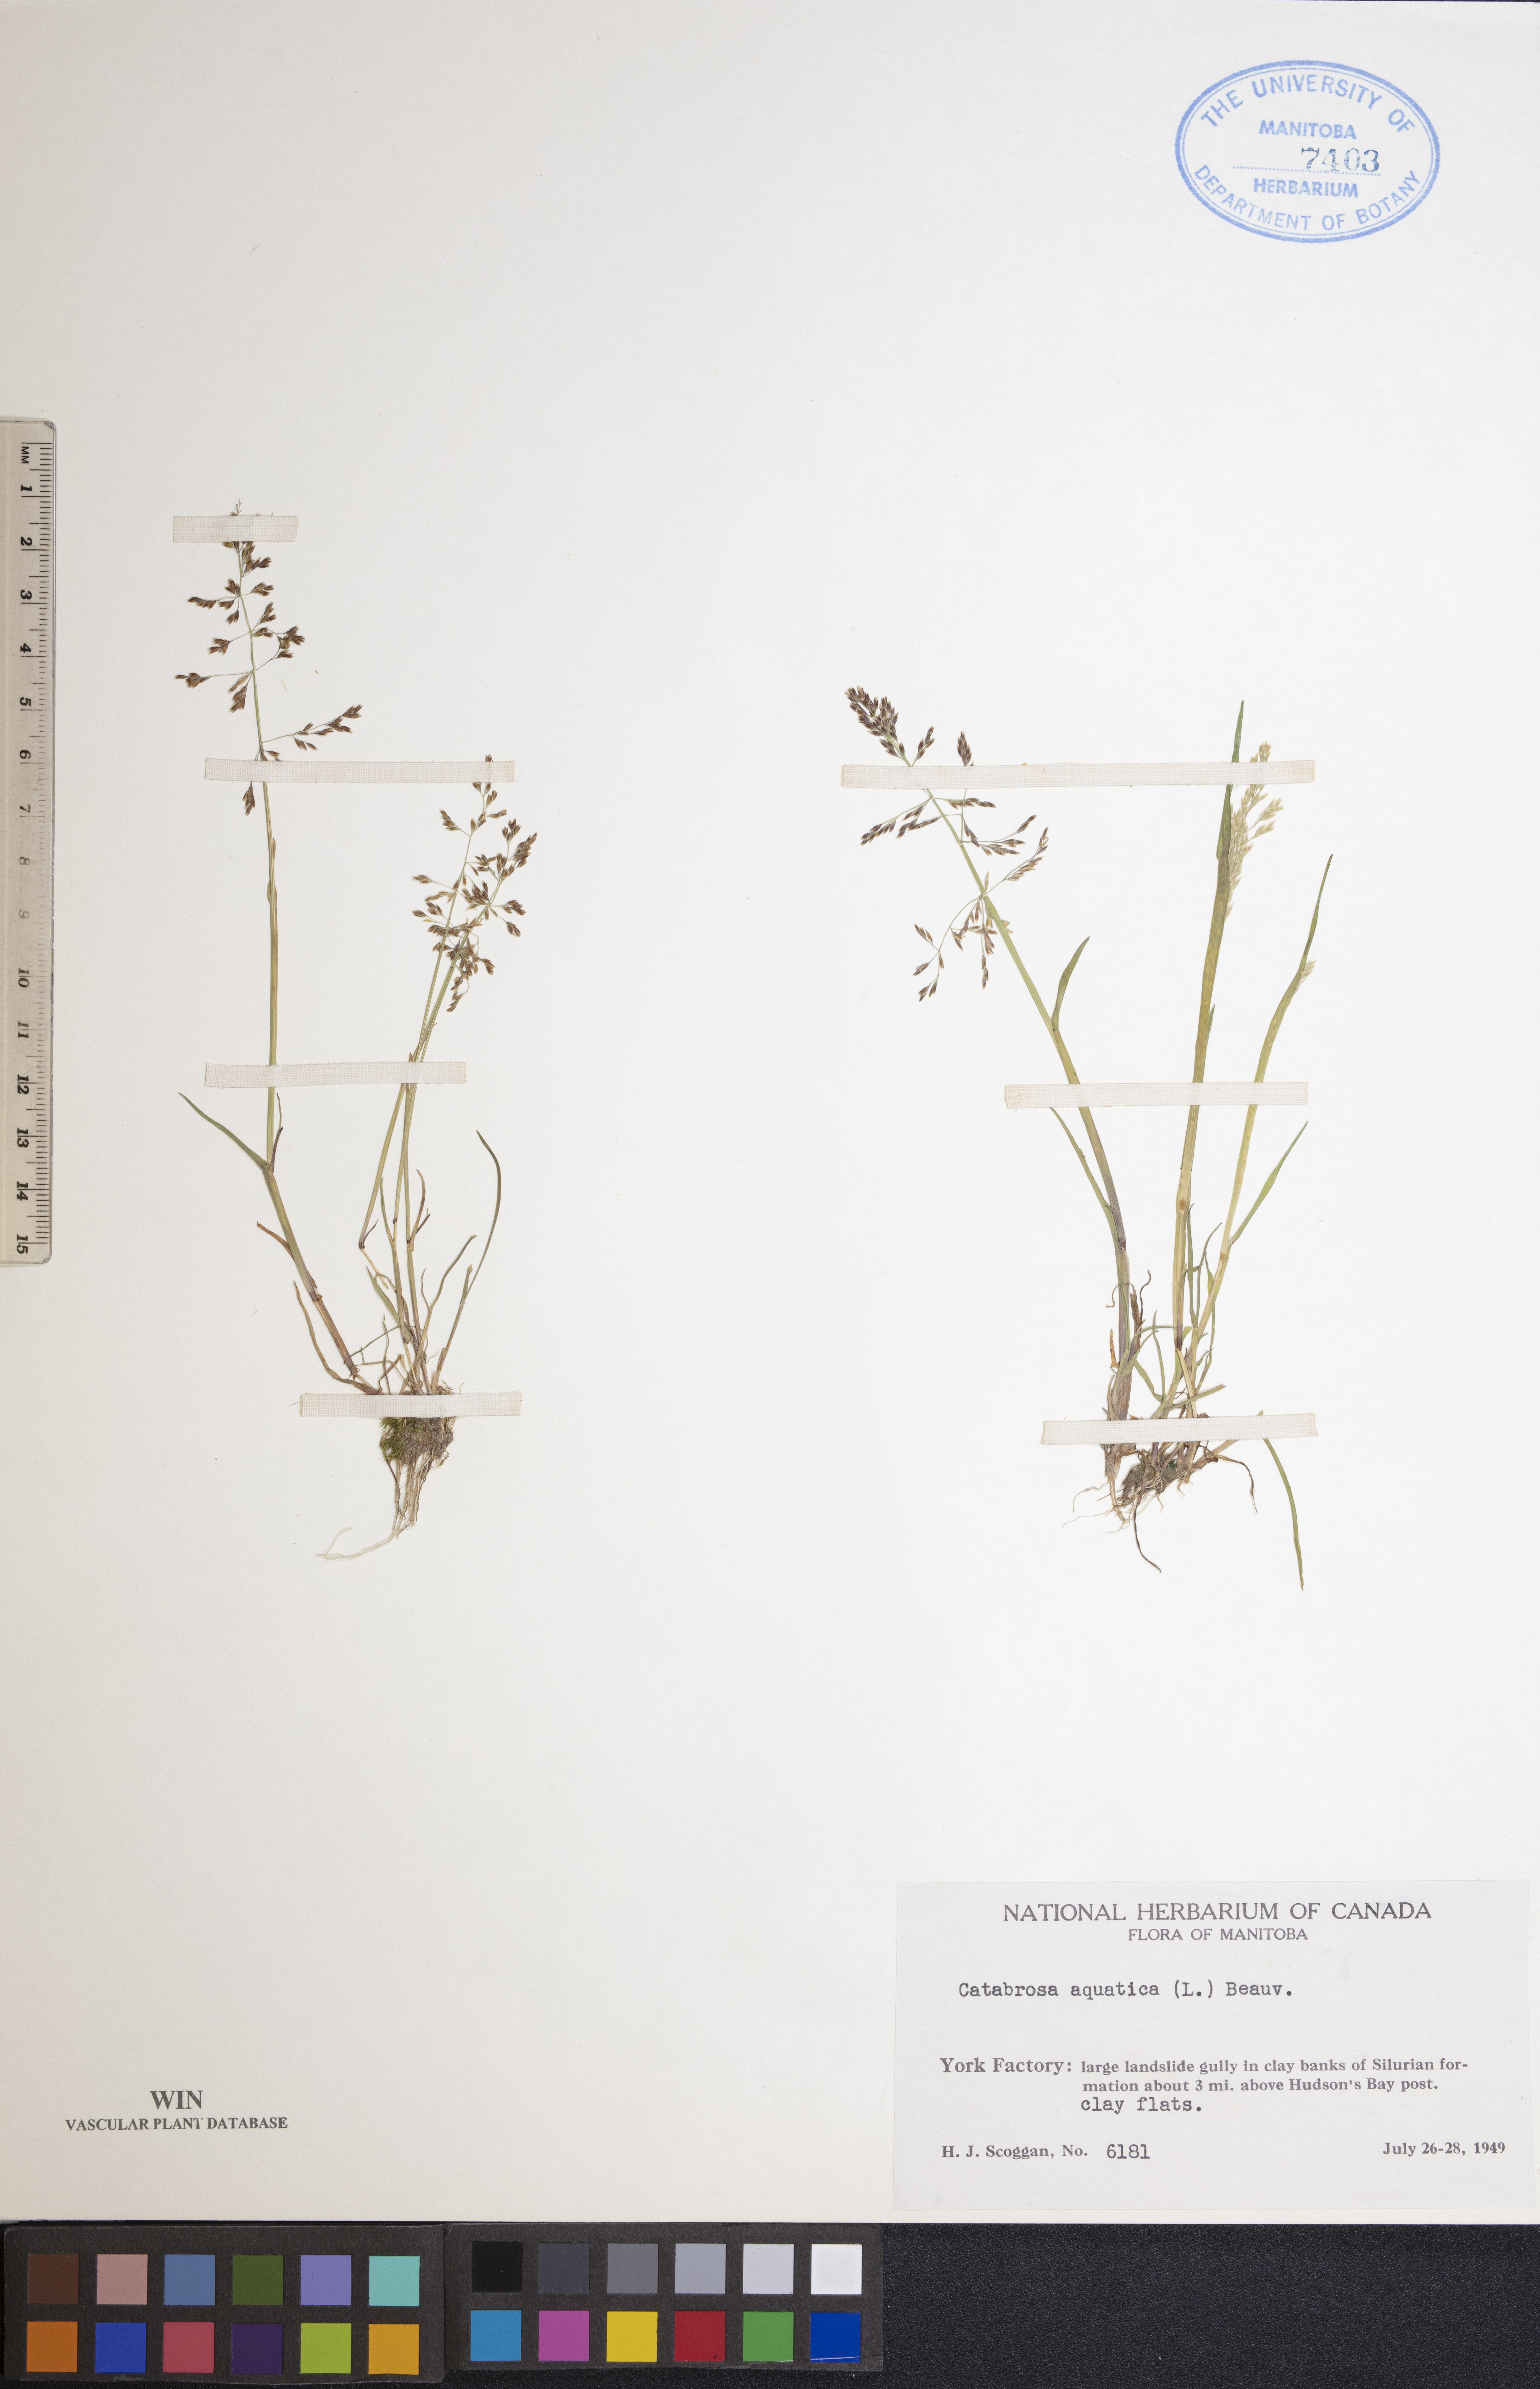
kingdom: Plantae
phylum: Tracheophyta
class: Liliopsida
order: Poales
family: Poaceae
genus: Catabrosa
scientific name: Catabrosa aquatica
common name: Whorl-grass
